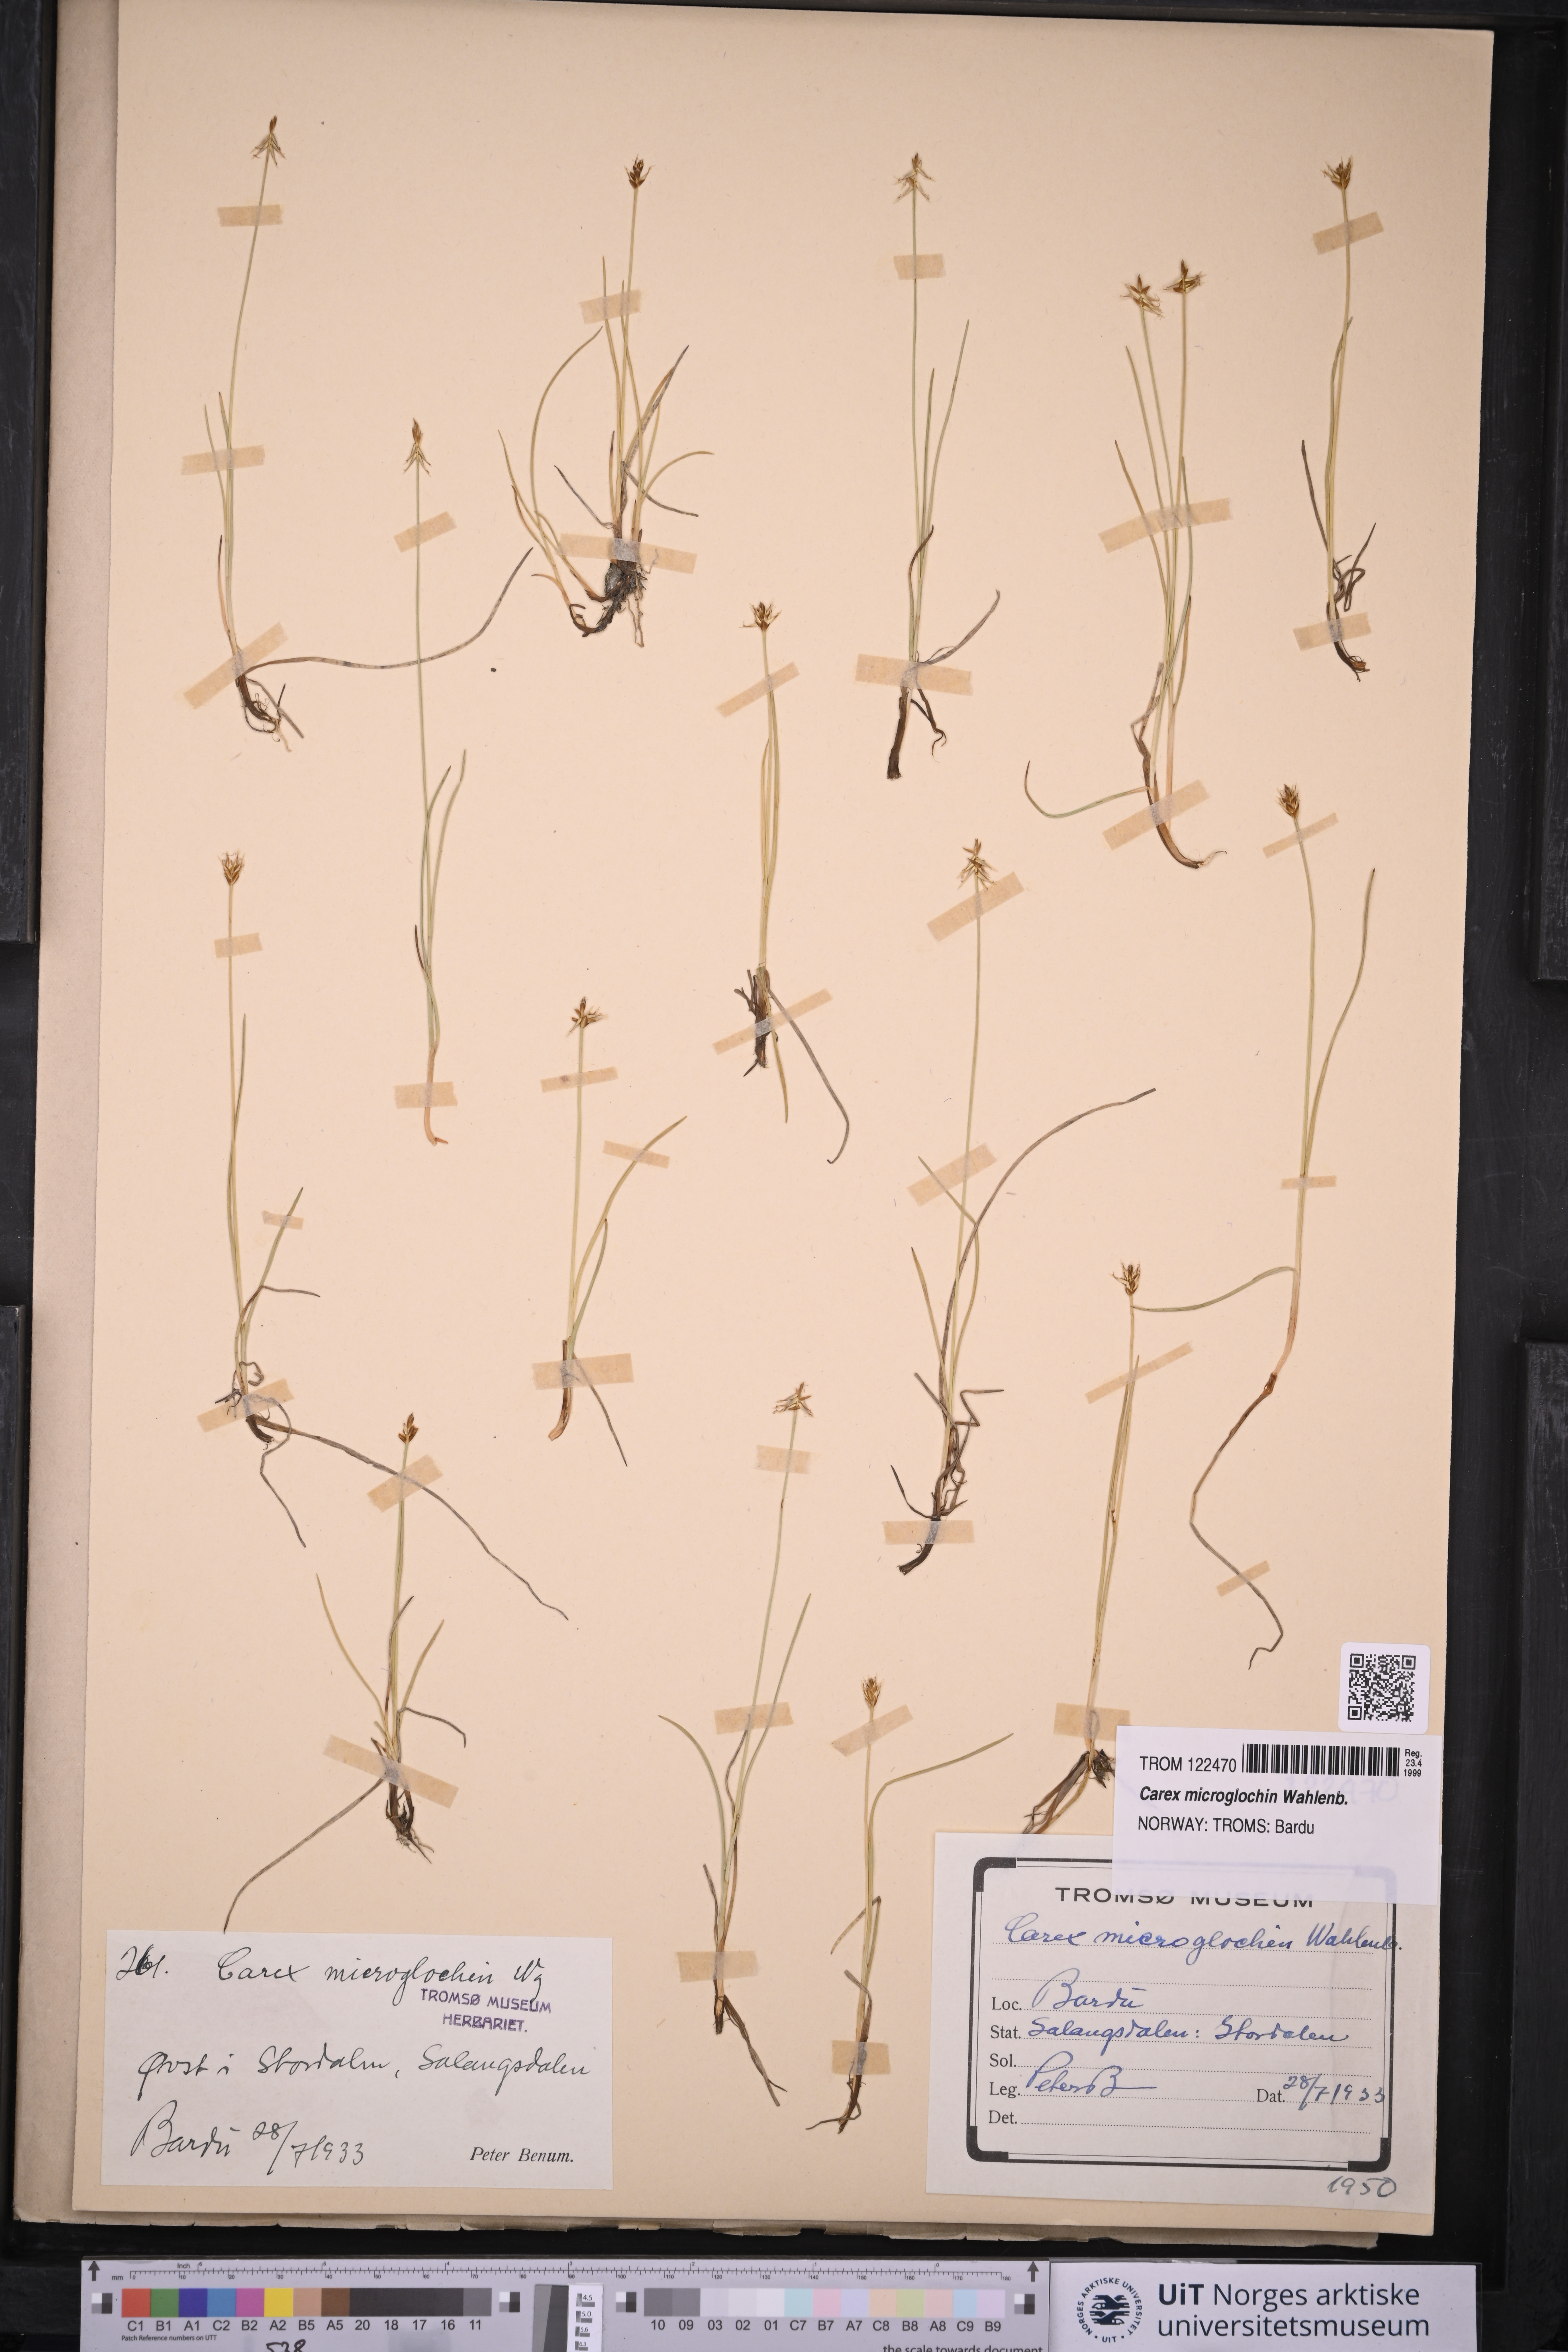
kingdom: Plantae
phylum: Tracheophyta
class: Liliopsida
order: Poales
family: Cyperaceae
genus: Carex
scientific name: Carex microglochin
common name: Bristle sedge
